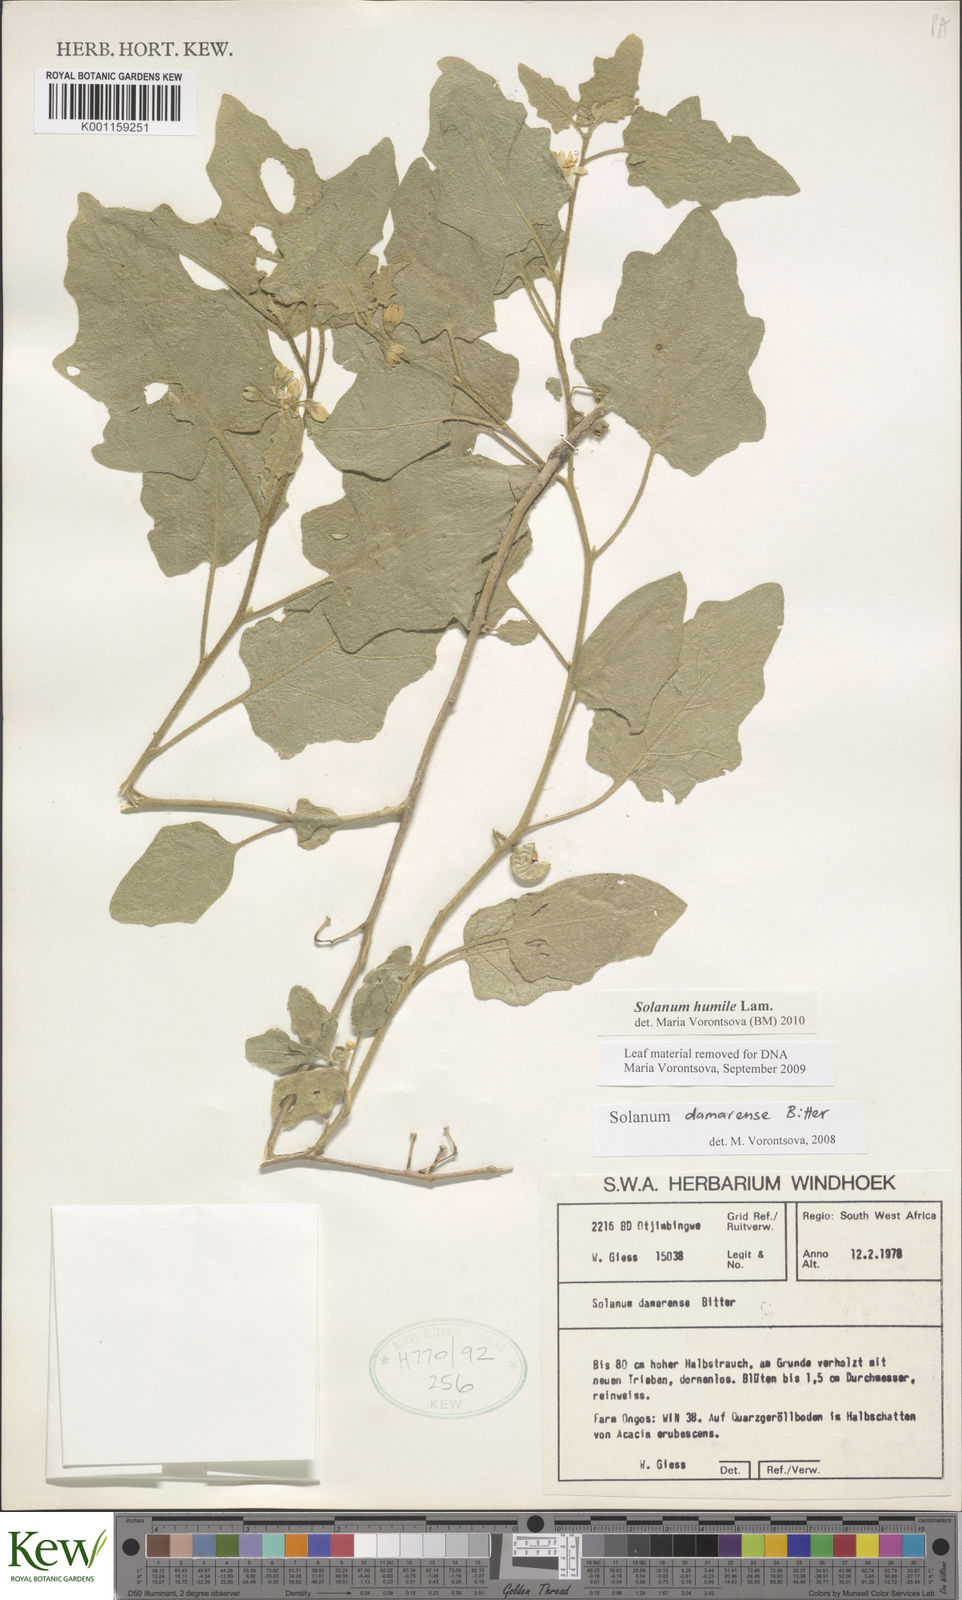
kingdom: Plantae
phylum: Tracheophyta
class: Magnoliopsida
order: Solanales
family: Solanaceae
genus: Solanum
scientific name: Solanum humile
